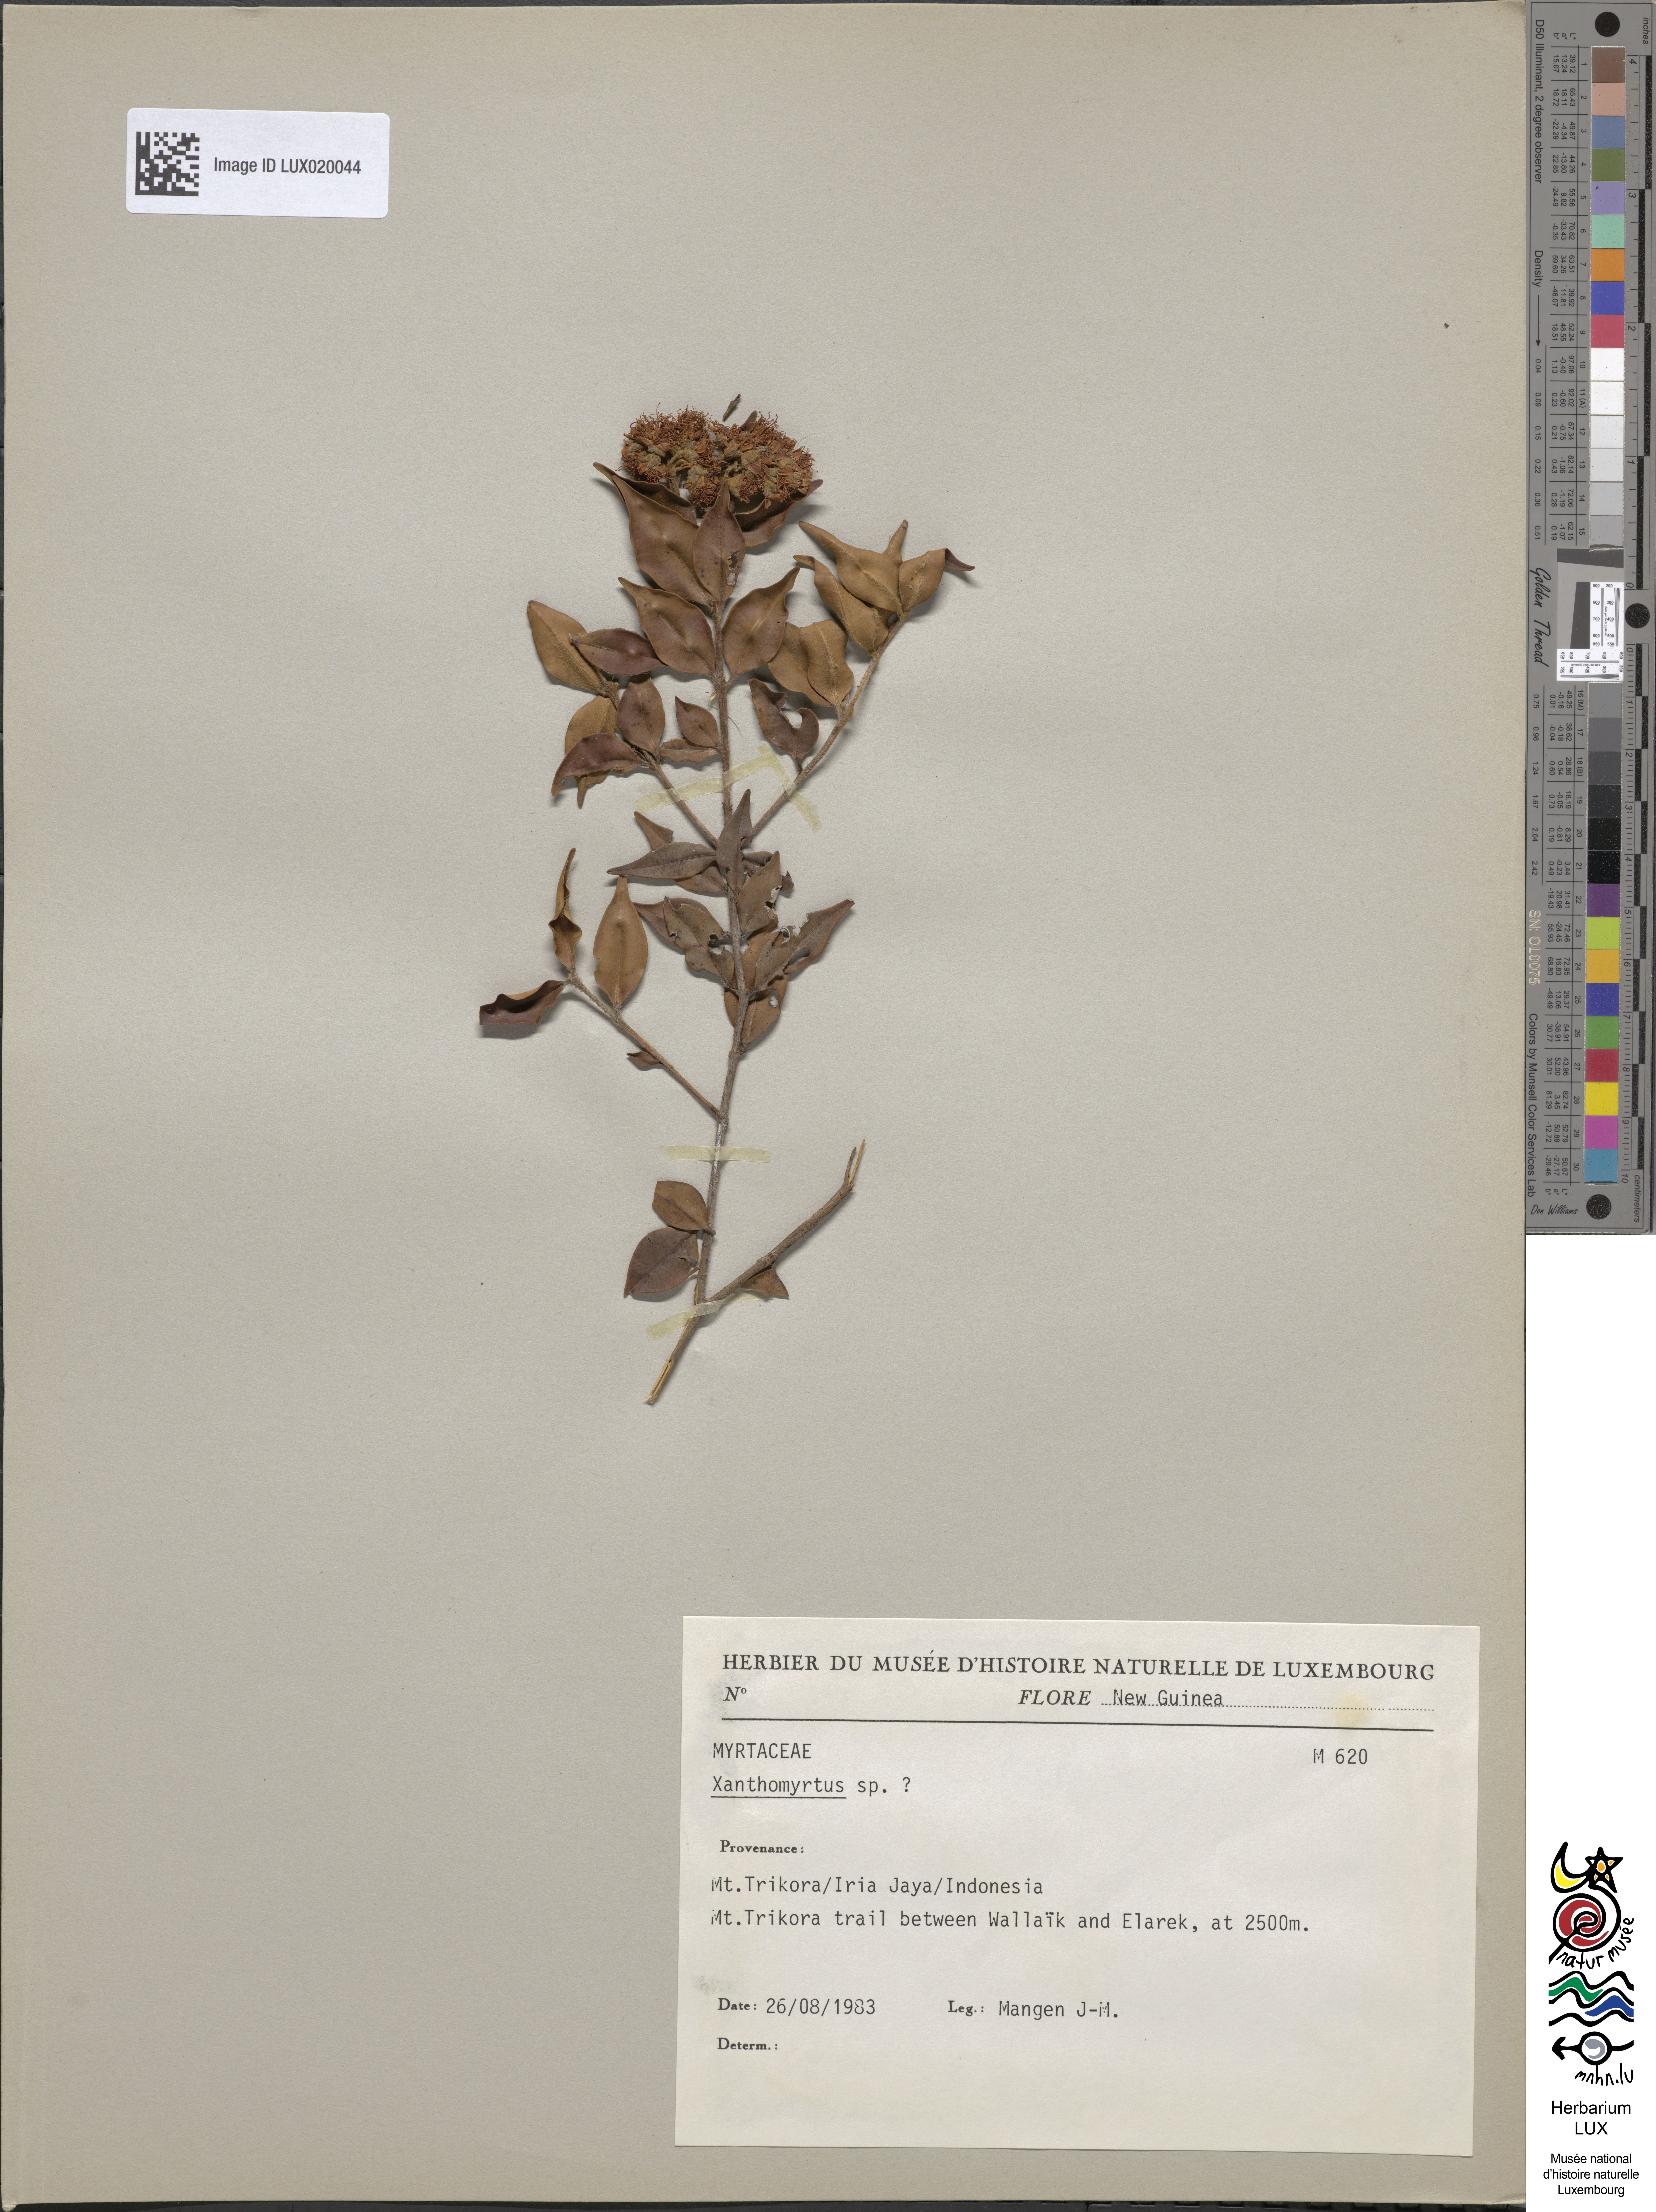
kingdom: Plantae
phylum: Tracheophyta
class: Magnoliopsida
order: Myrtales
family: Myrtaceae
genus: Xanthomyrtus
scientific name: Xanthomyrtus
